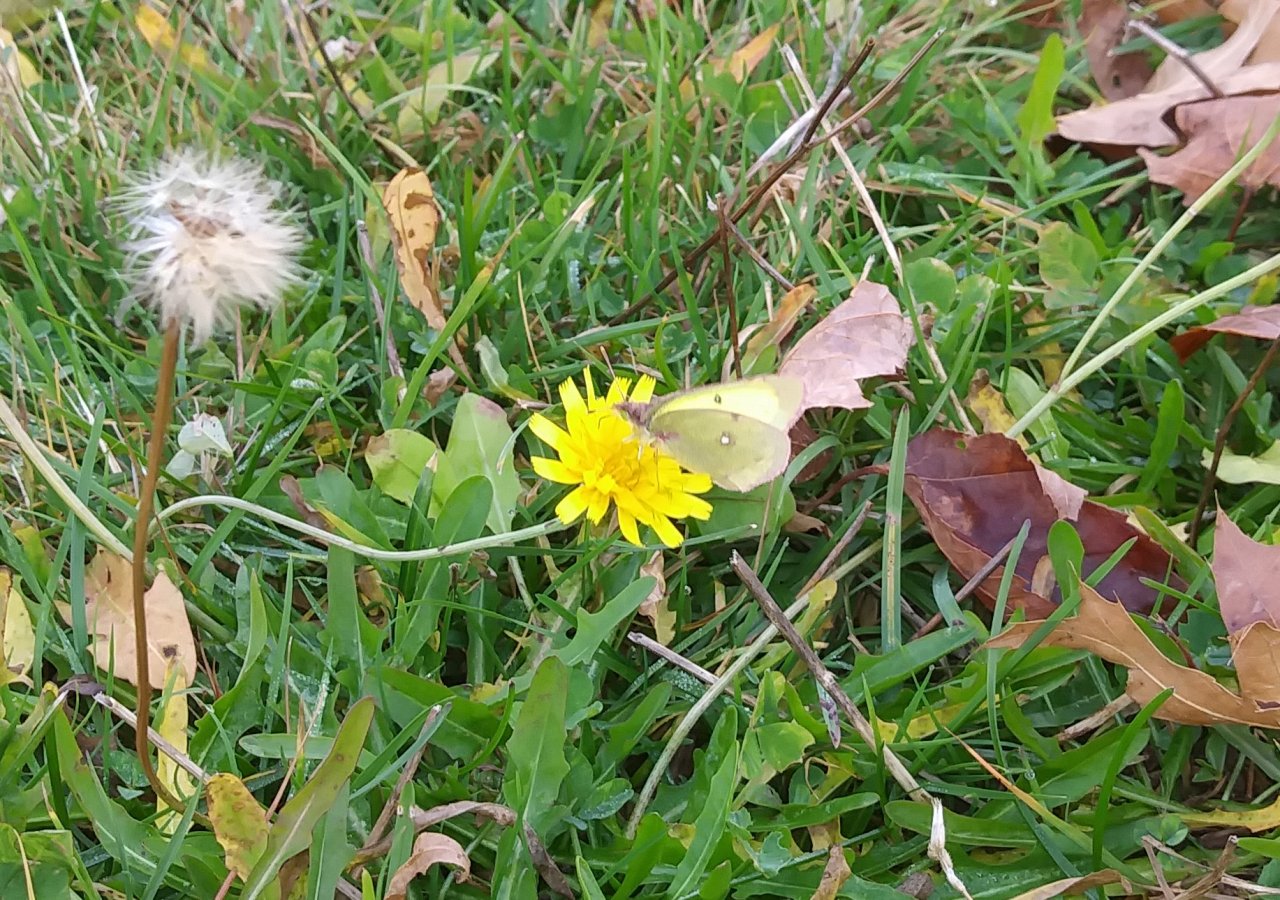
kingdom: Animalia
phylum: Arthropoda
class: Insecta
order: Lepidoptera
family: Pieridae
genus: Colias
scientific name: Colias philodice
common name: Clouded Sulphur
